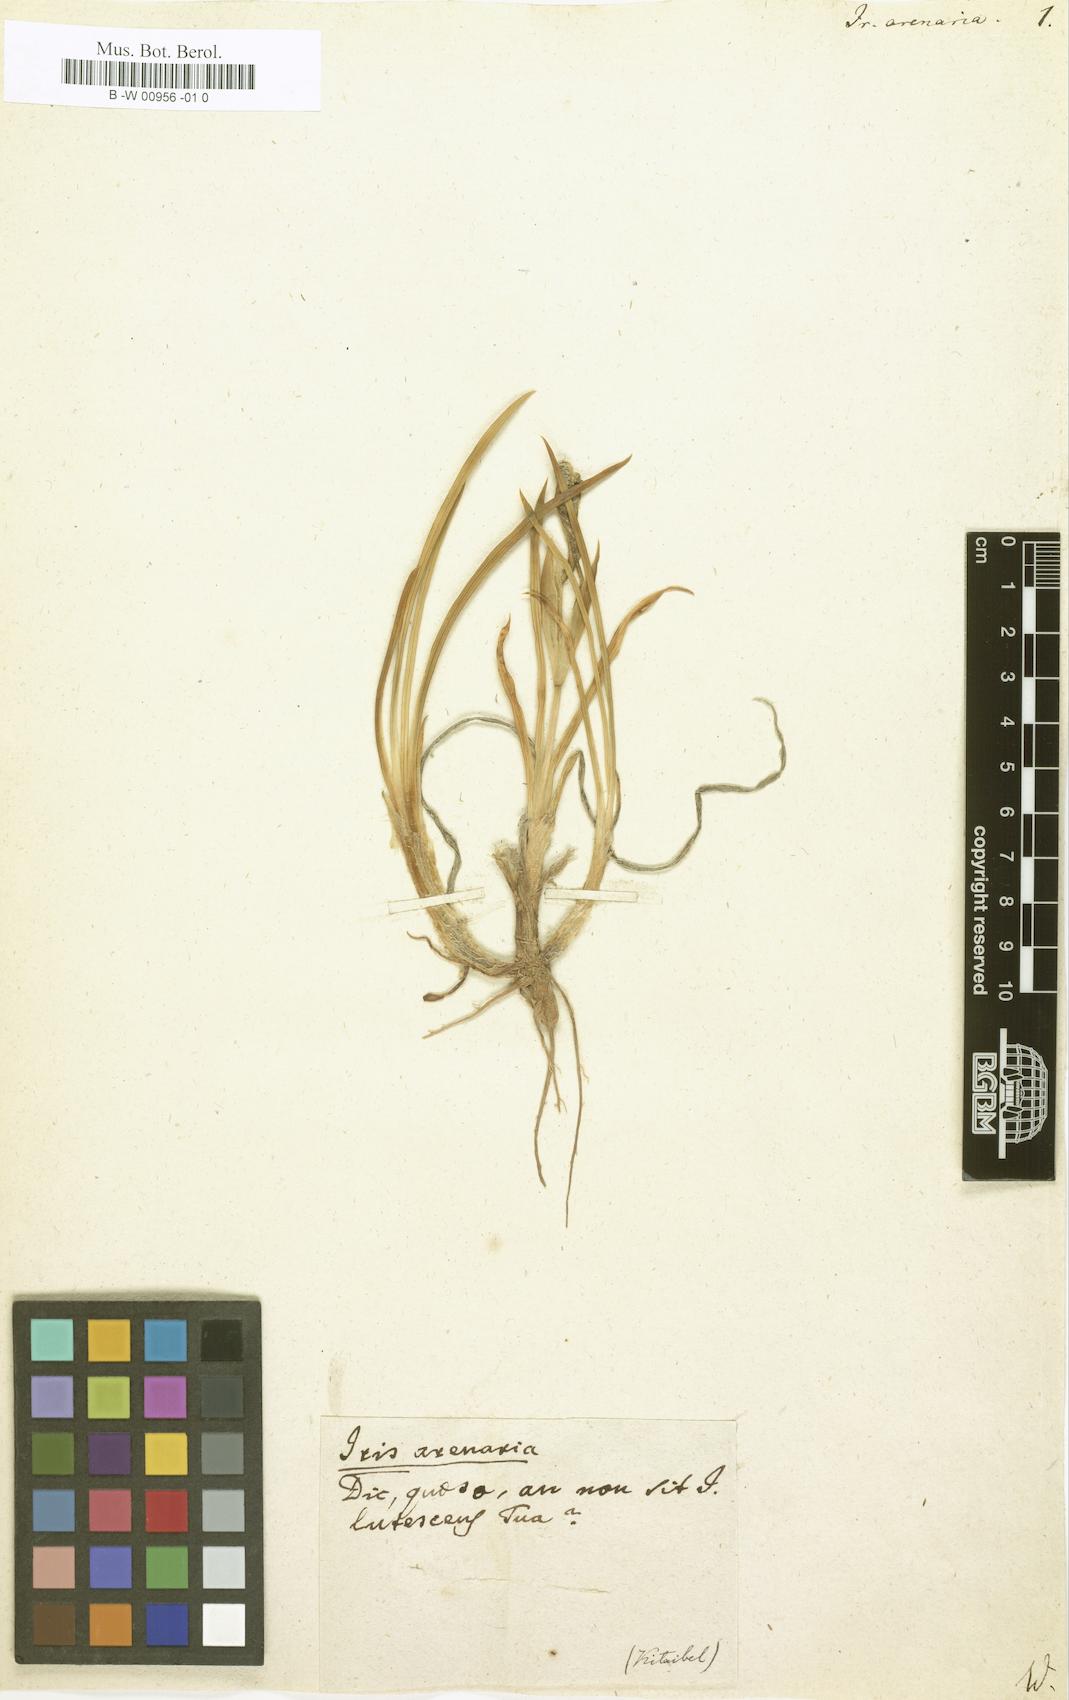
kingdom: Plantae
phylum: Tracheophyta
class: Liliopsida
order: Asparagales
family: Iridaceae
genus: Iris
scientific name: Iris arenaria
